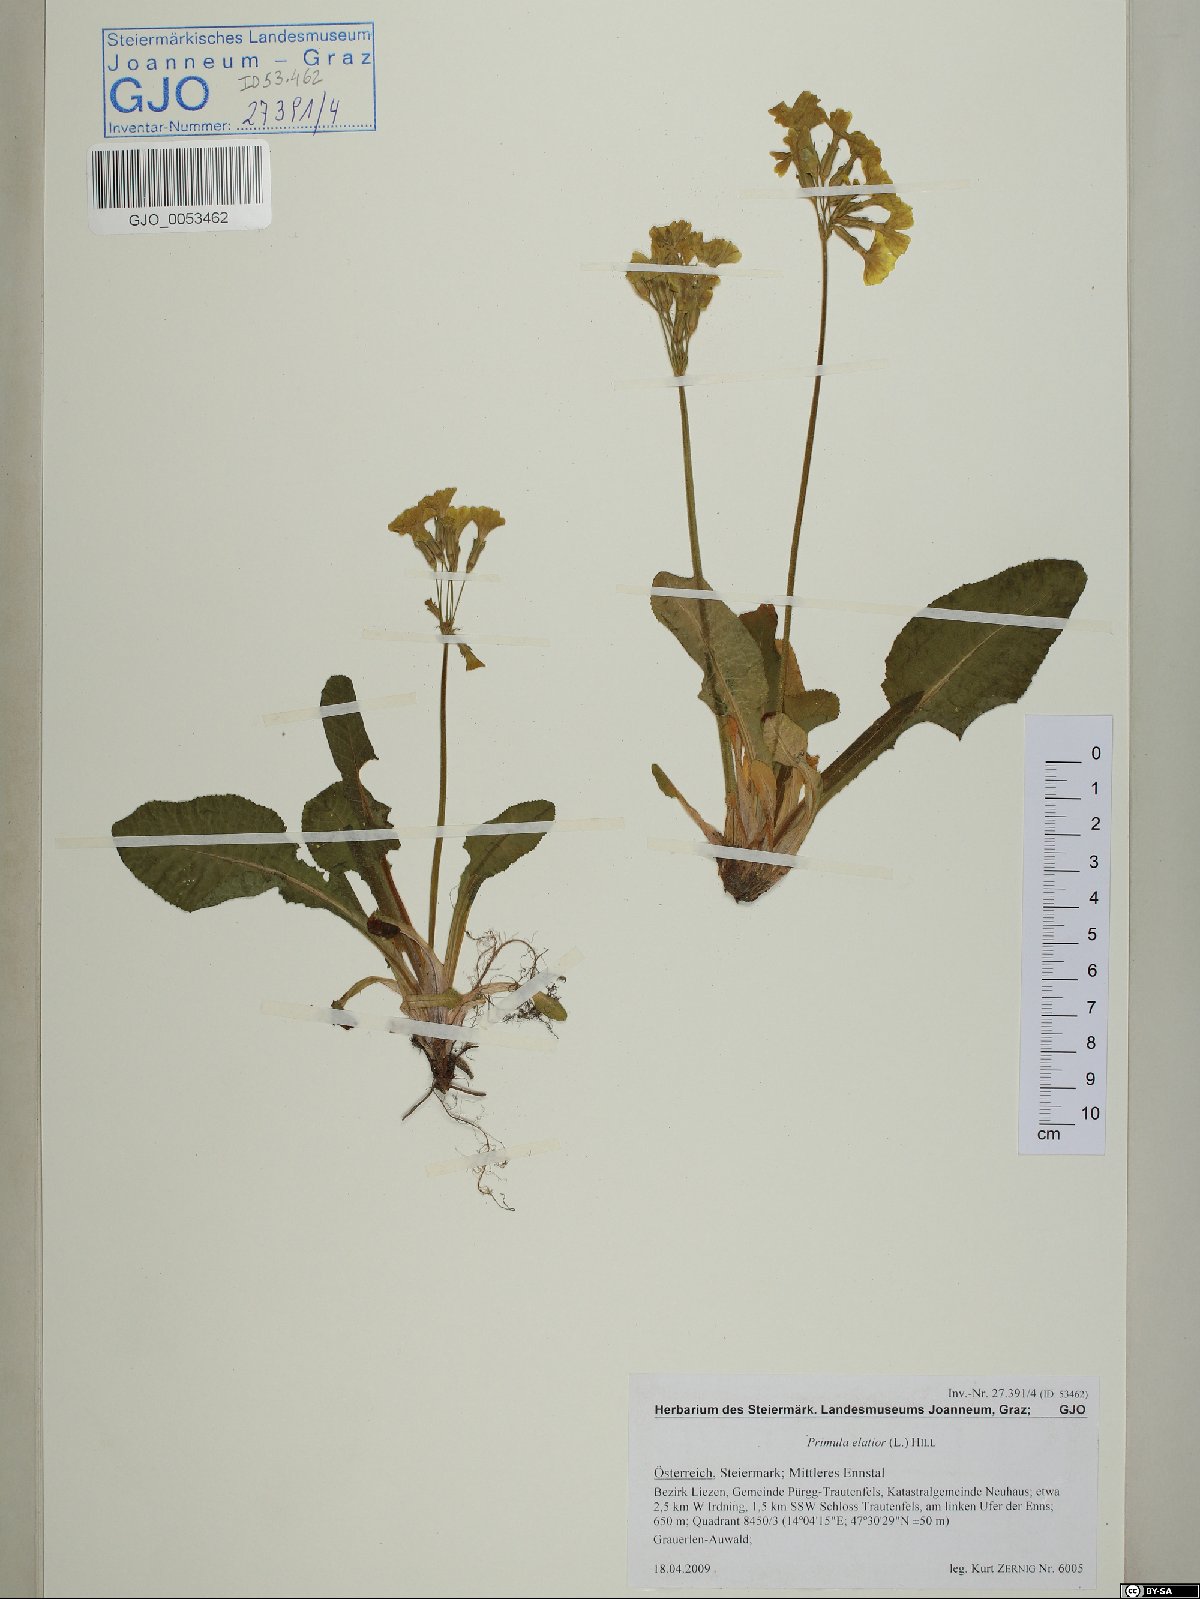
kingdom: Plantae
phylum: Tracheophyta
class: Magnoliopsida
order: Ericales
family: Primulaceae
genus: Primula
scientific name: Primula elatior
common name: Oxlip
